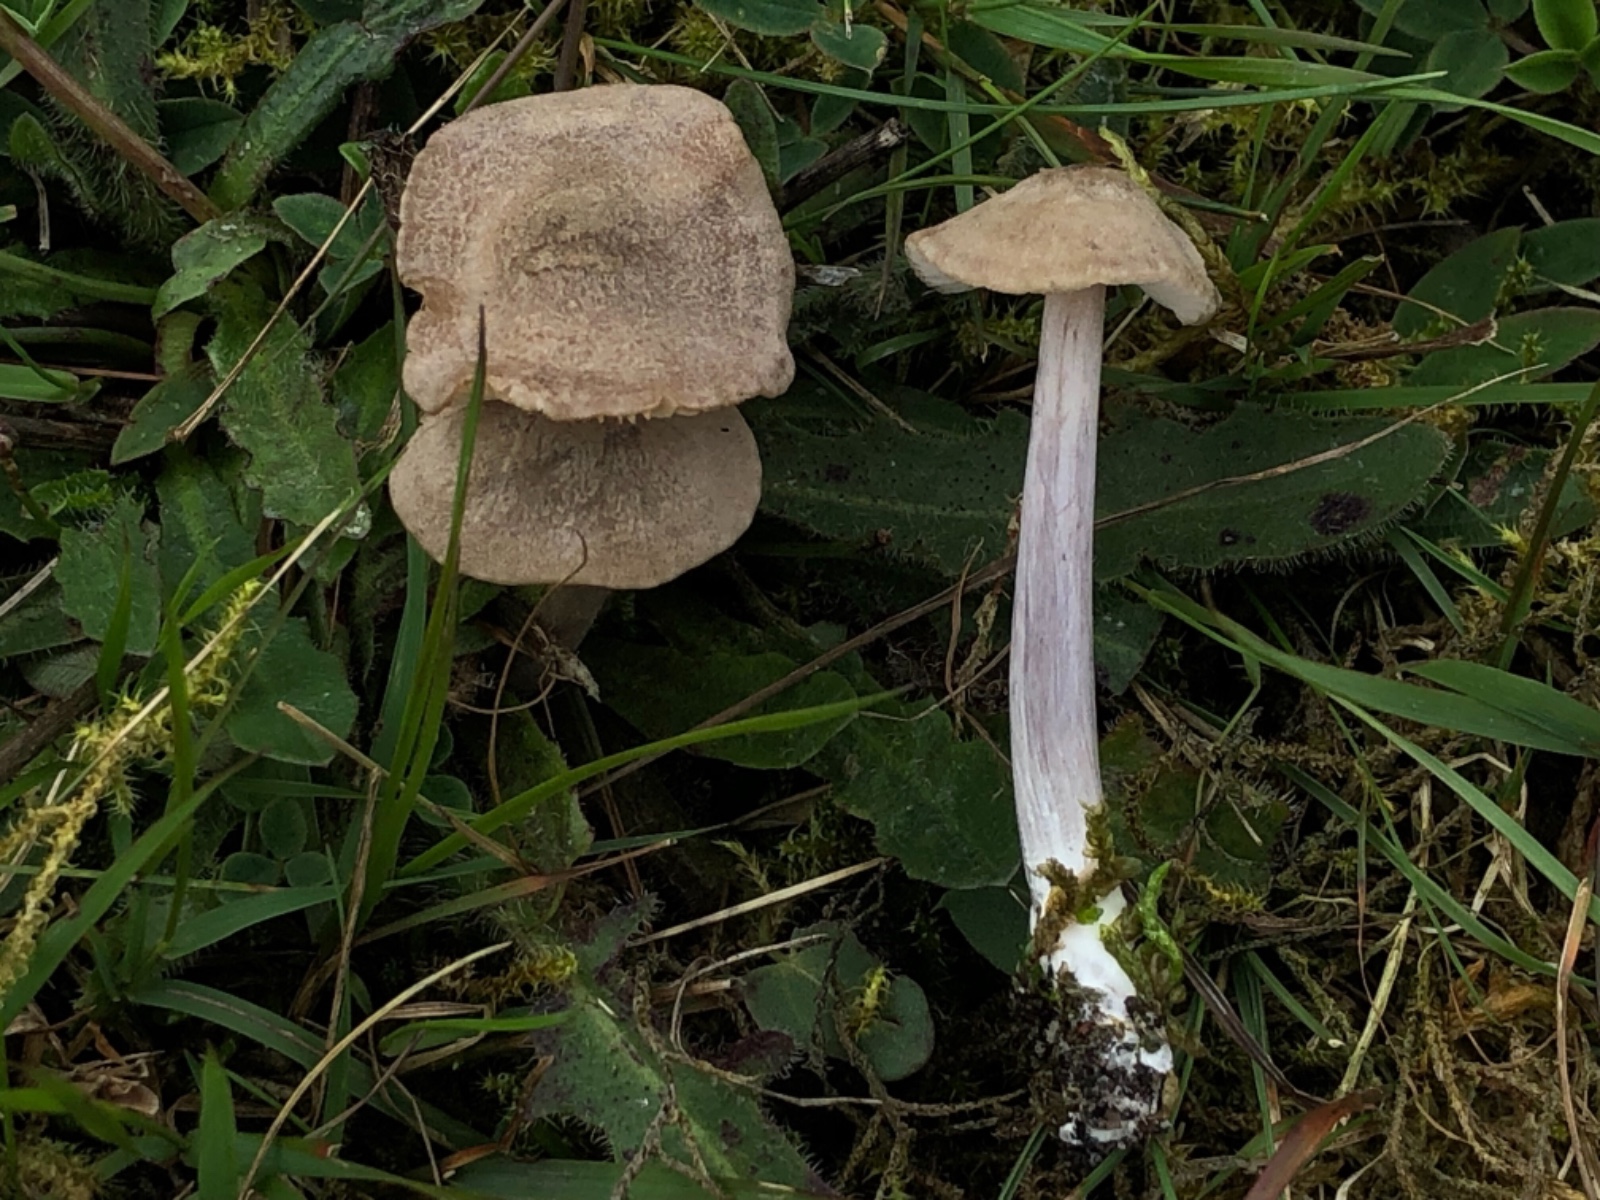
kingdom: Fungi
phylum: Basidiomycota
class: Agaricomycetes
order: Agaricales
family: Entolomataceae
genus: Entoloma
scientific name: Entoloma griseocyaneum
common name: gråblå rødblad
